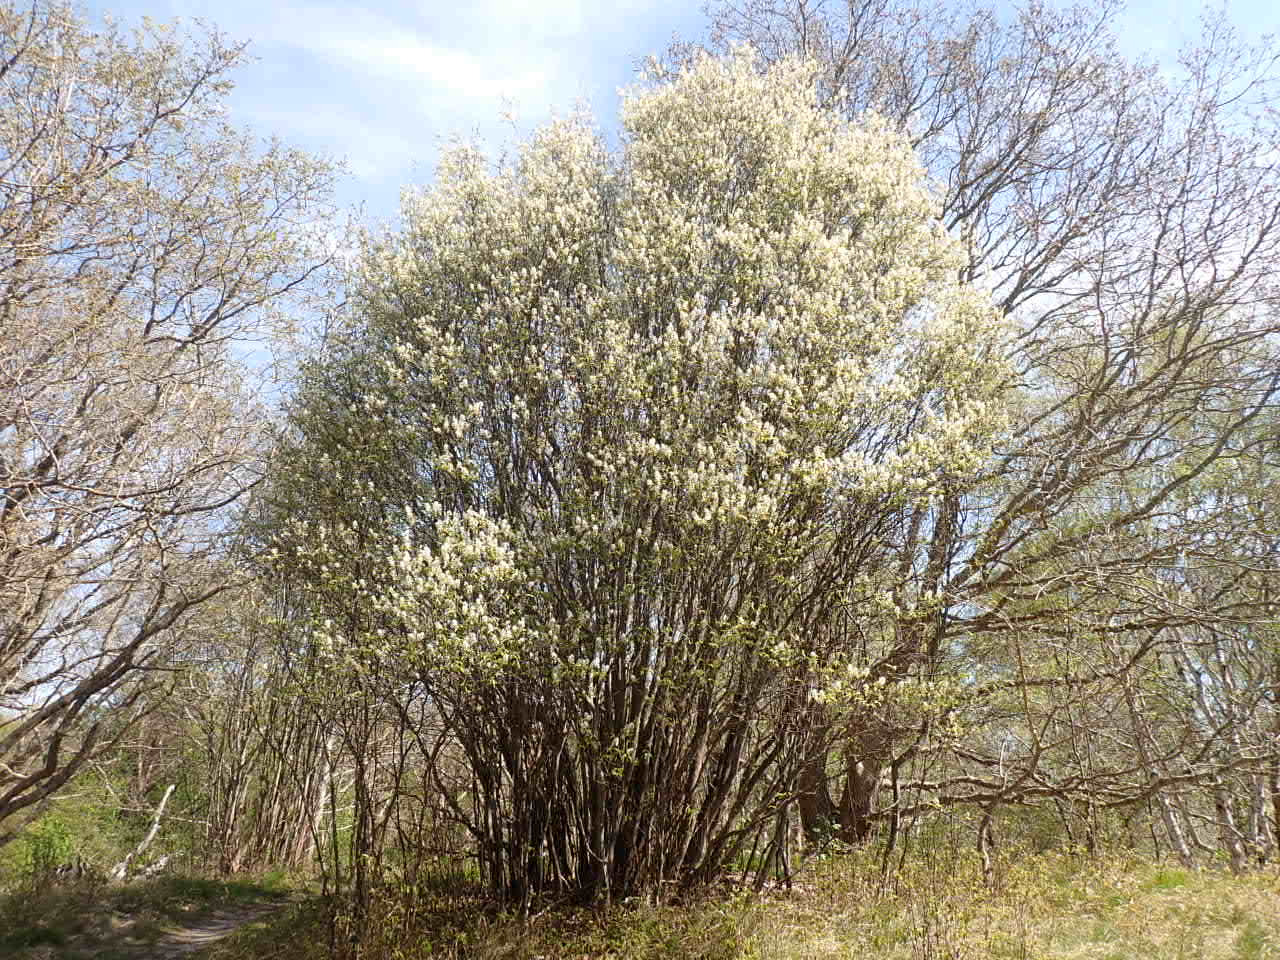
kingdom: Plantae
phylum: Tracheophyta
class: Magnoliopsida
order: Rosales
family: Rosaceae
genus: Amelanchier
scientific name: Amelanchier humilis
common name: Aks-bærmispel
